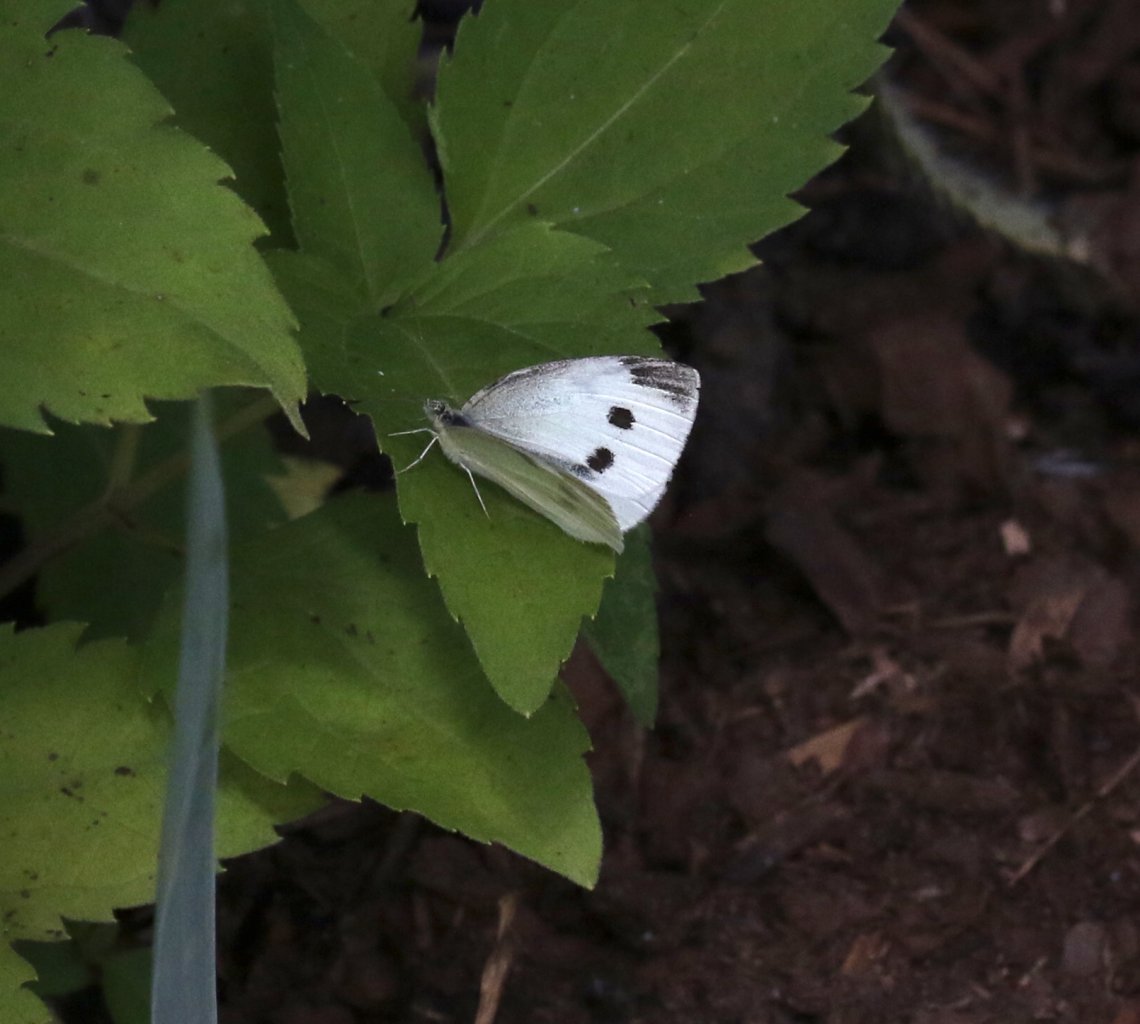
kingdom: Animalia
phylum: Arthropoda
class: Insecta
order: Lepidoptera
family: Pieridae
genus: Pieris
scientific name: Pieris rapae
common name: Cabbage White
